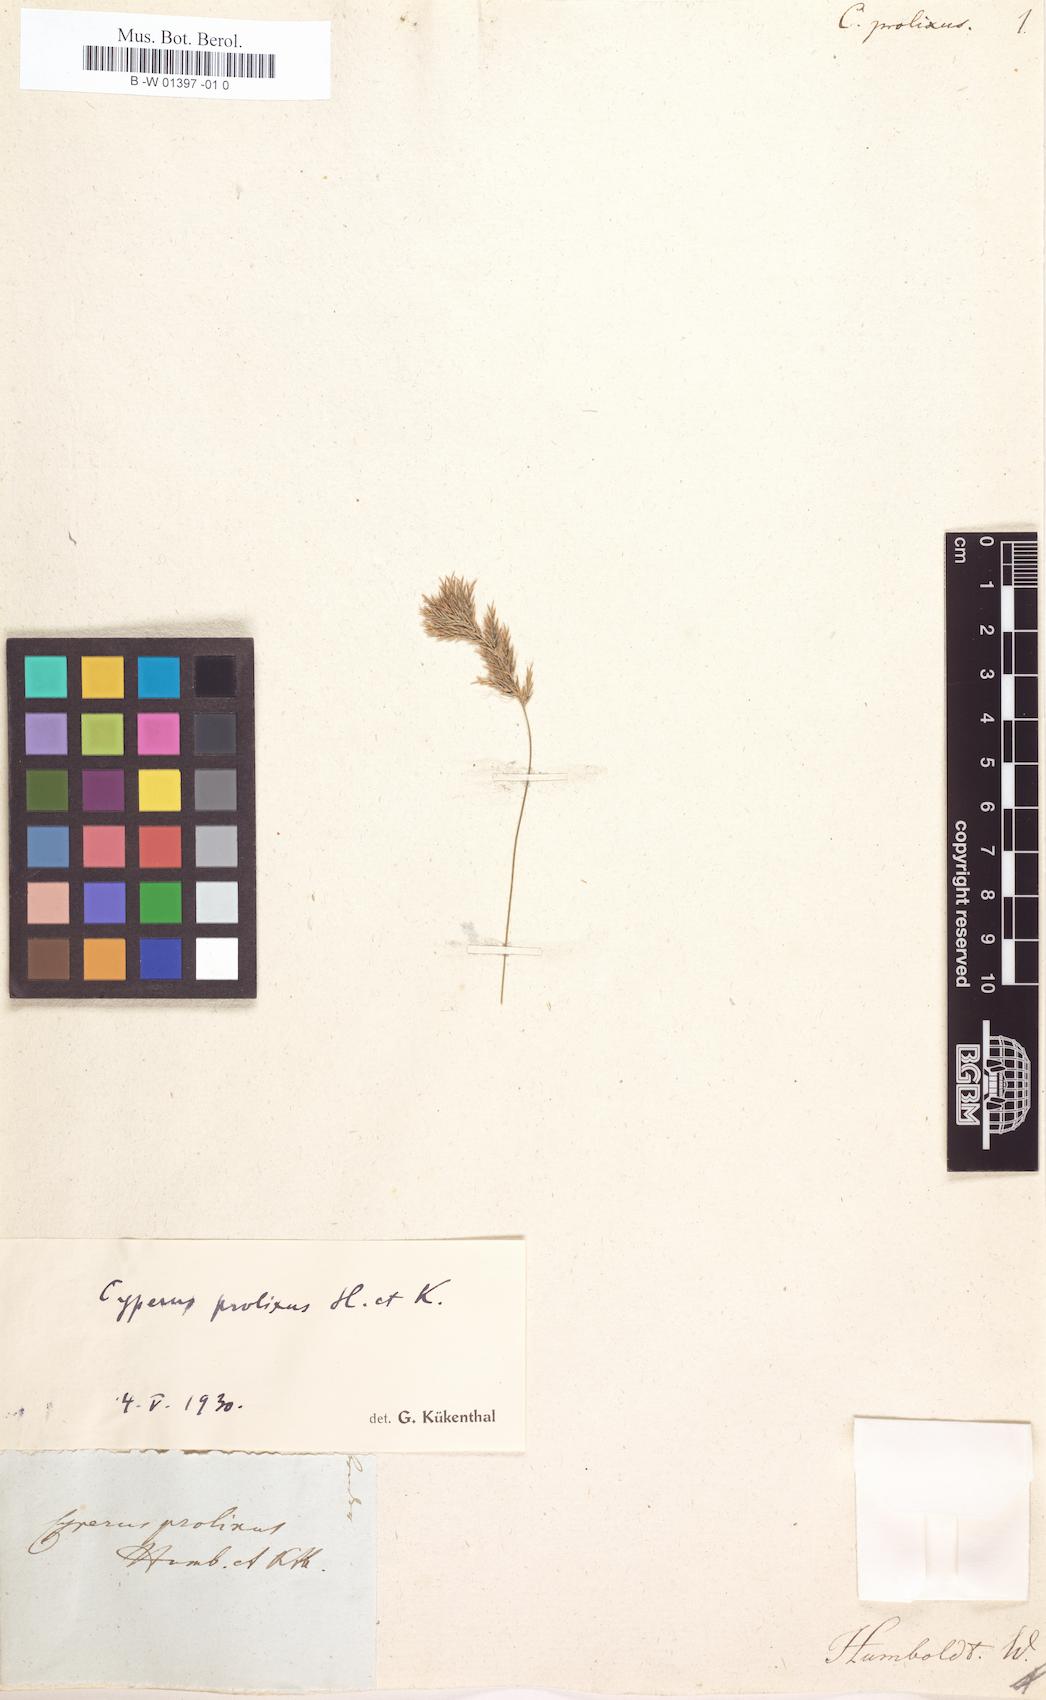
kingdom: Plantae
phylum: Tracheophyta
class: Liliopsida
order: Poales
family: Cyperaceae
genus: Cyperus
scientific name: Cyperus prolixus
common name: Mosquito flatsedge
